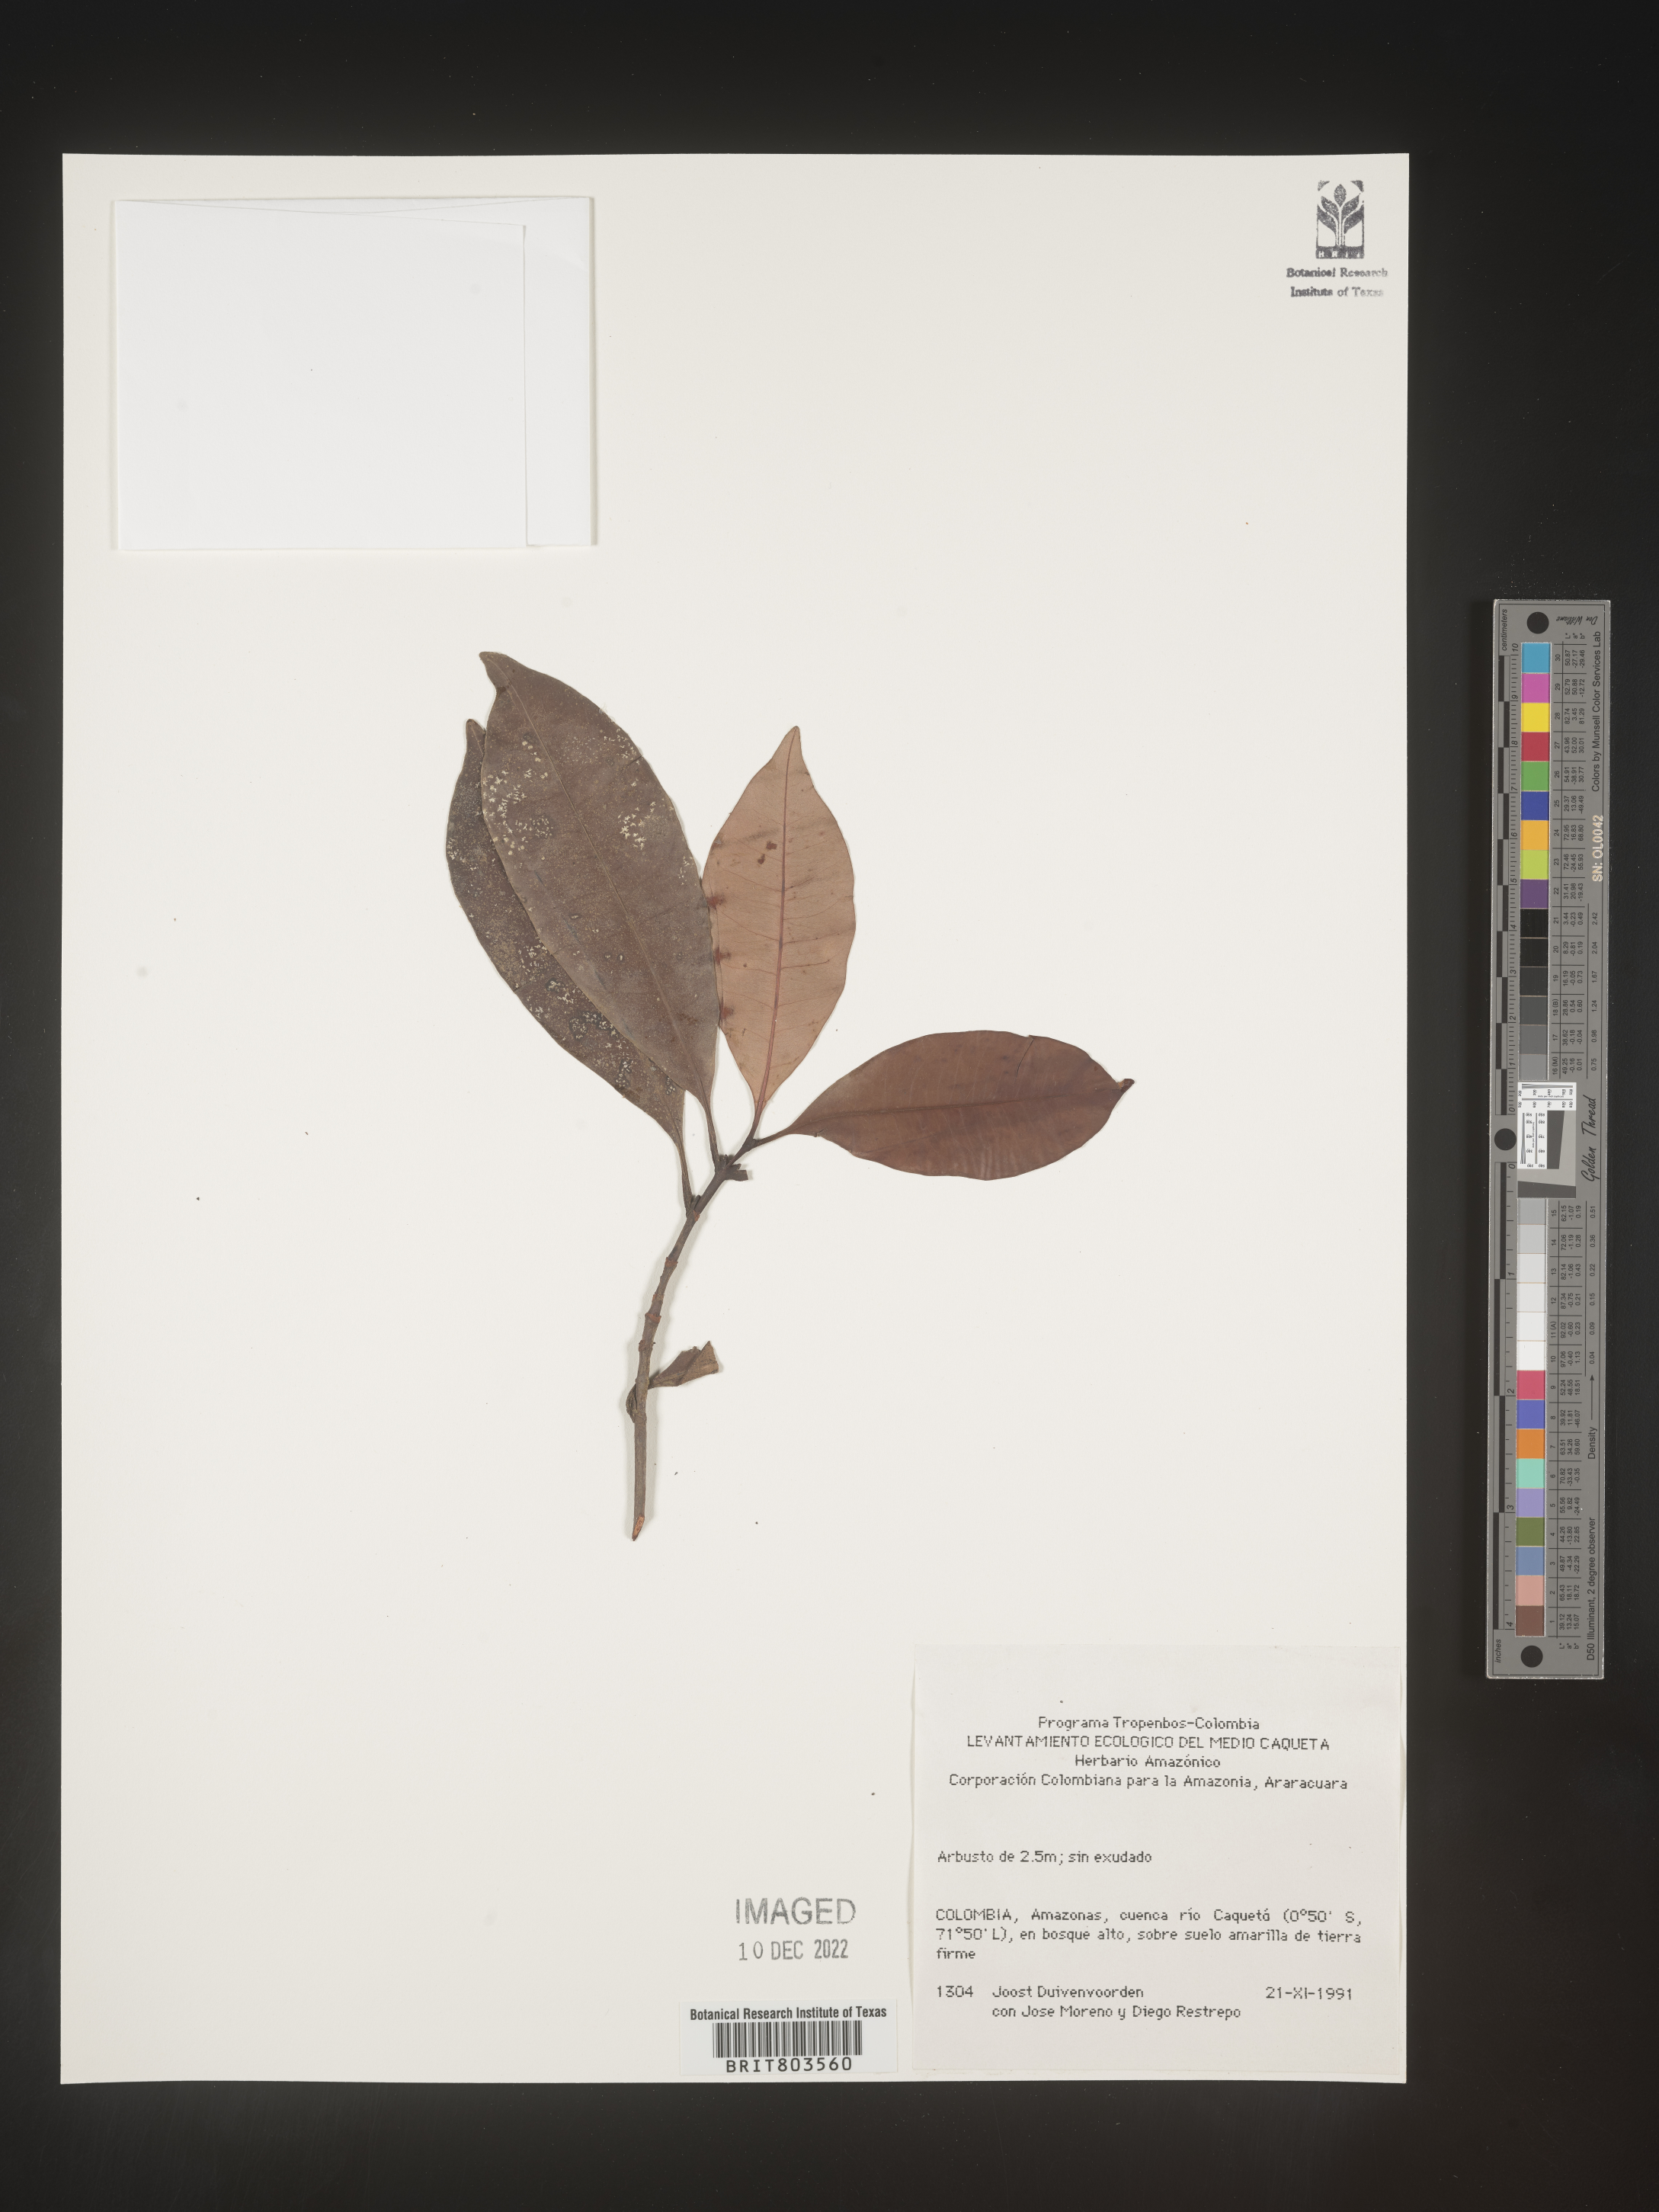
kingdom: Plantae
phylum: Tracheophyta
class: Magnoliopsida
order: Malpighiales
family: Clusiaceae
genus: Tovomita
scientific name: Tovomita
